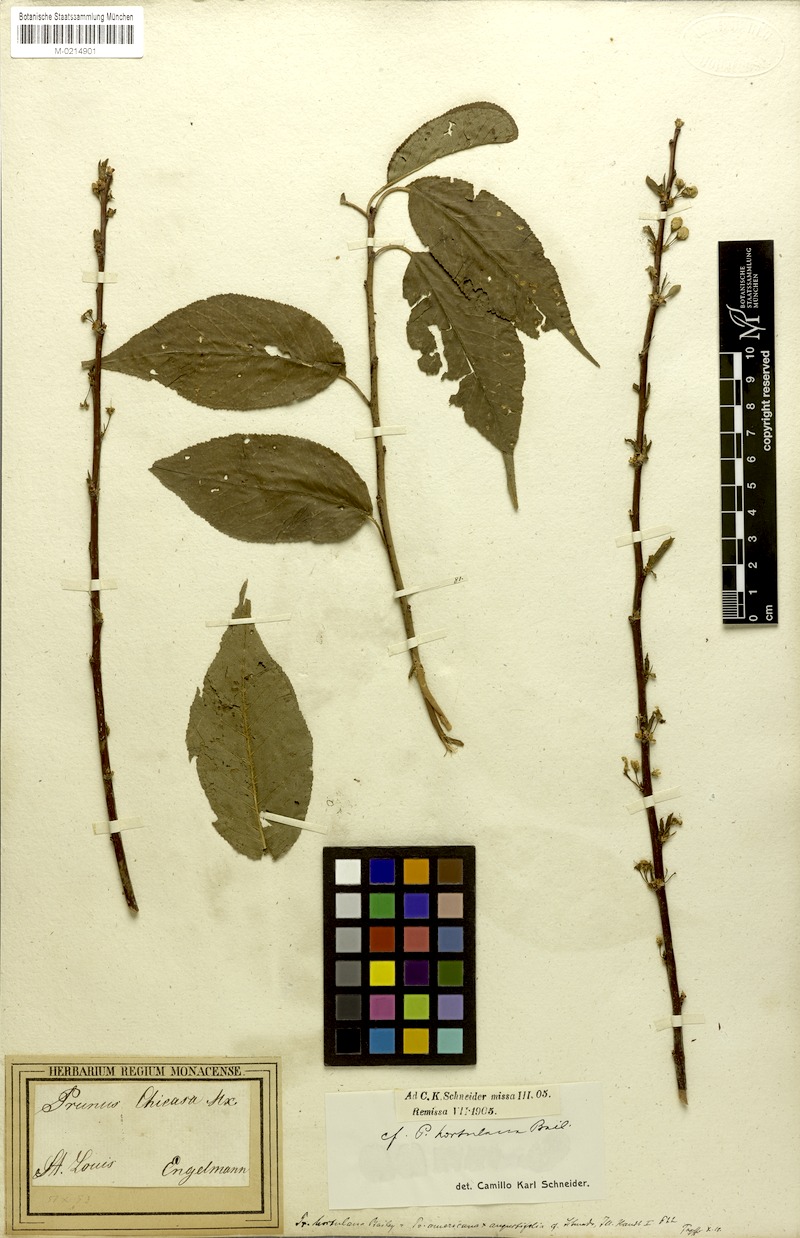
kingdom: Plantae
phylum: Tracheophyta
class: Magnoliopsida
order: Rosales
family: Rosaceae
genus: Prunus
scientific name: Prunus hortulana
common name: Hortulan plum
